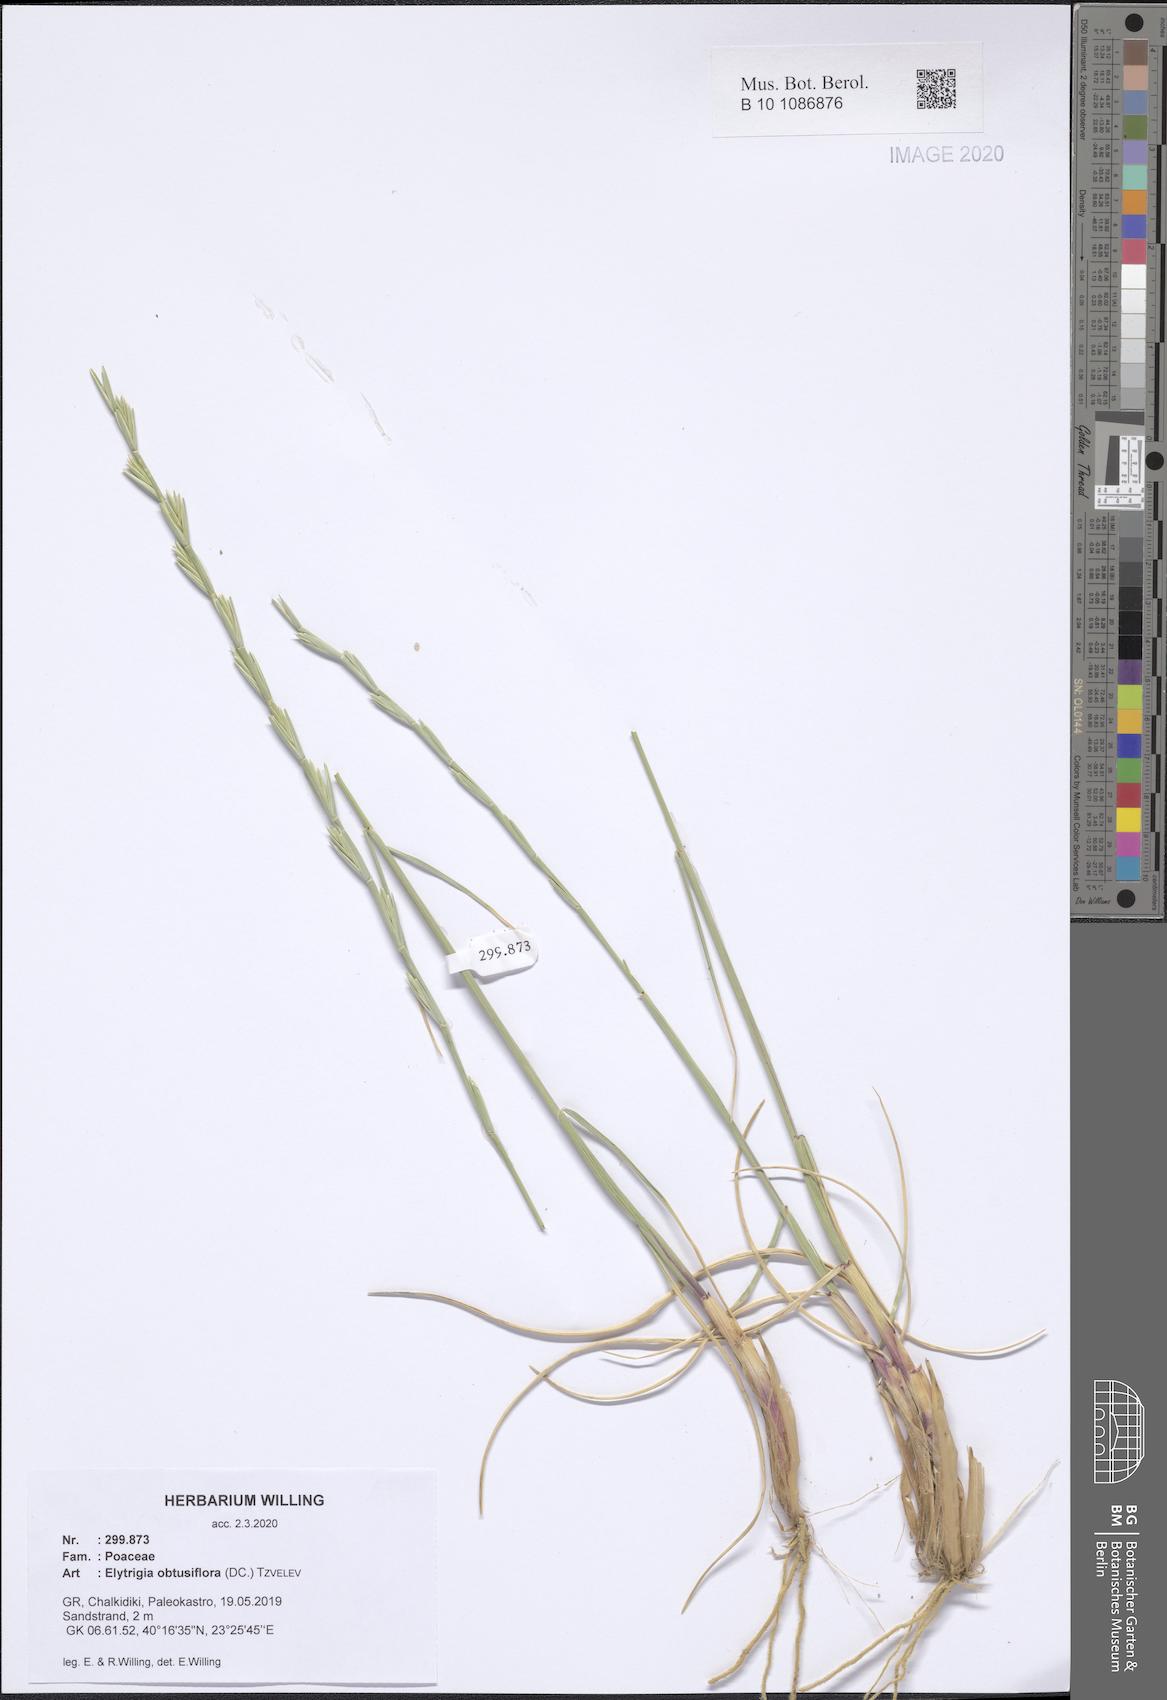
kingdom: Plantae
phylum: Tracheophyta
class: Liliopsida
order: Poales
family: Poaceae
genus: Thinopyrum
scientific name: Thinopyrum obtusiflorum
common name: Eurasian quackgrass
